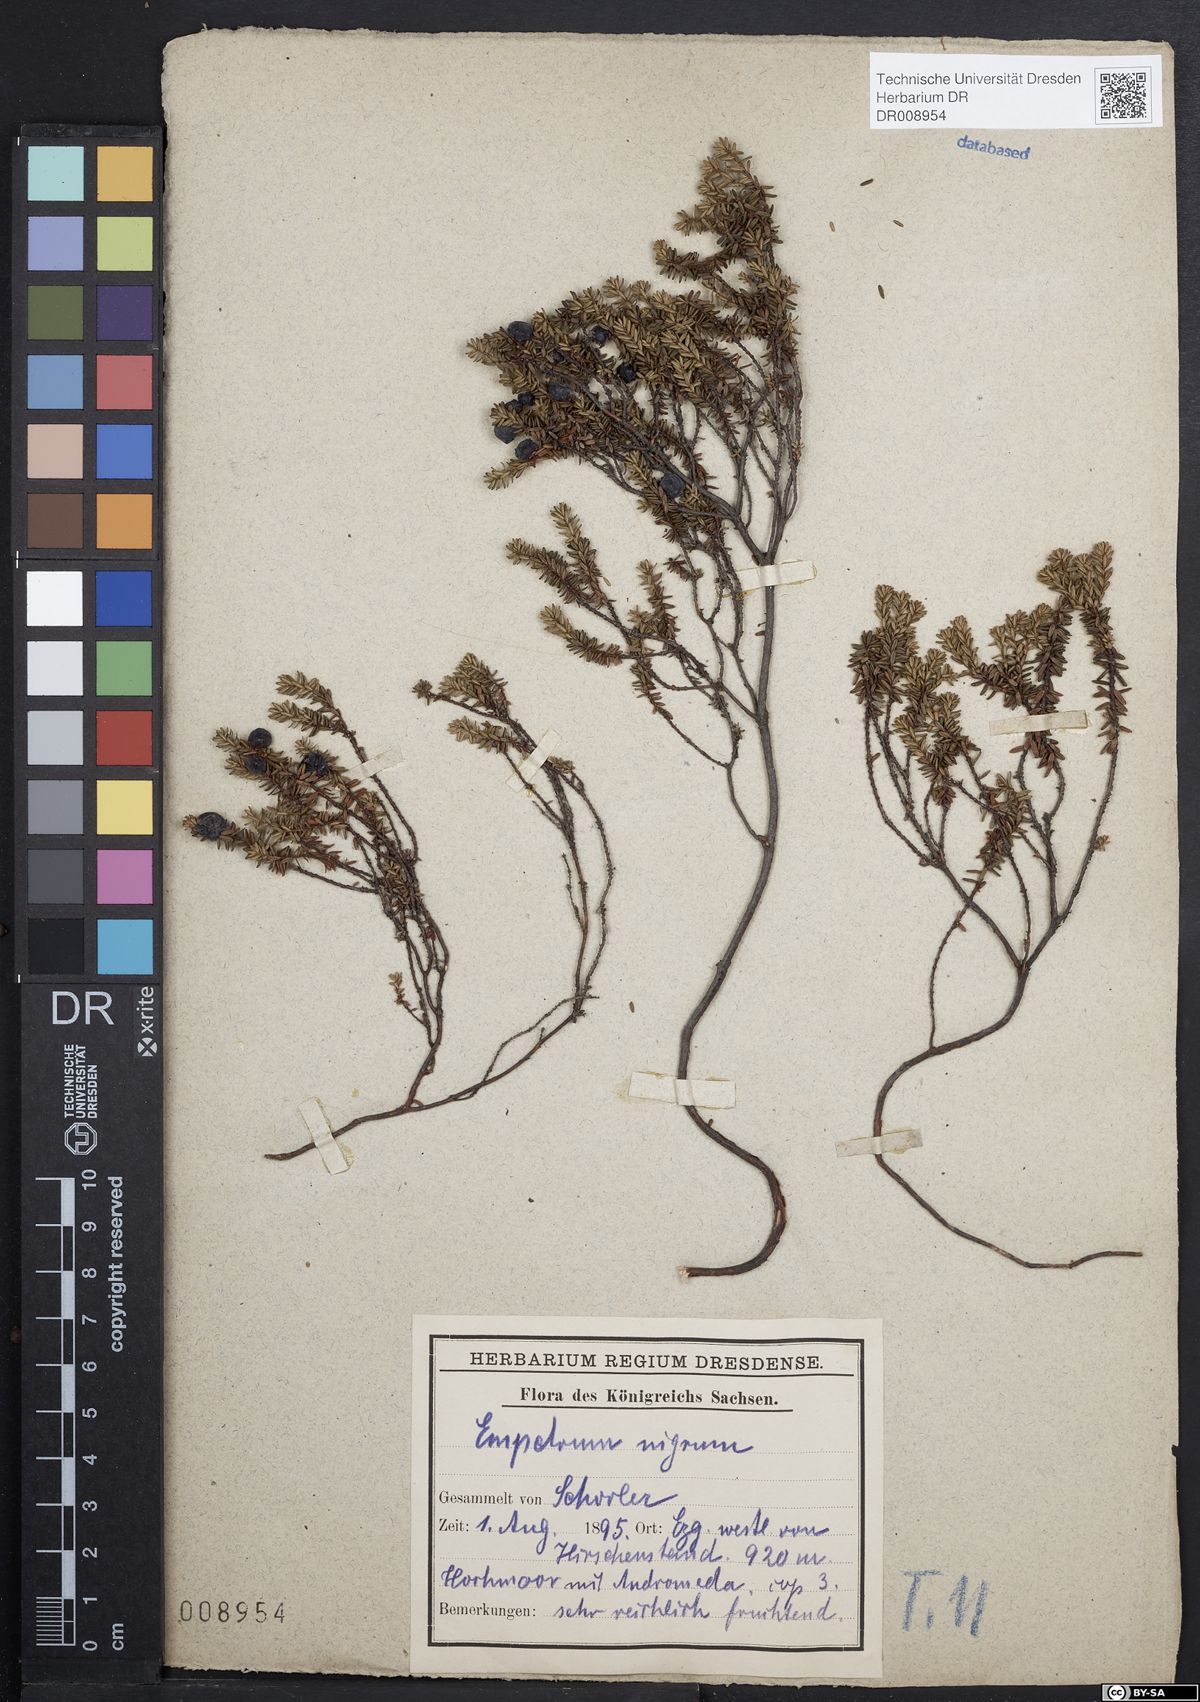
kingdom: Plantae
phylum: Tracheophyta
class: Magnoliopsida
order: Ericales
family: Ericaceae
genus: Empetrum
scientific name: Empetrum nigrum
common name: Black crowberry
